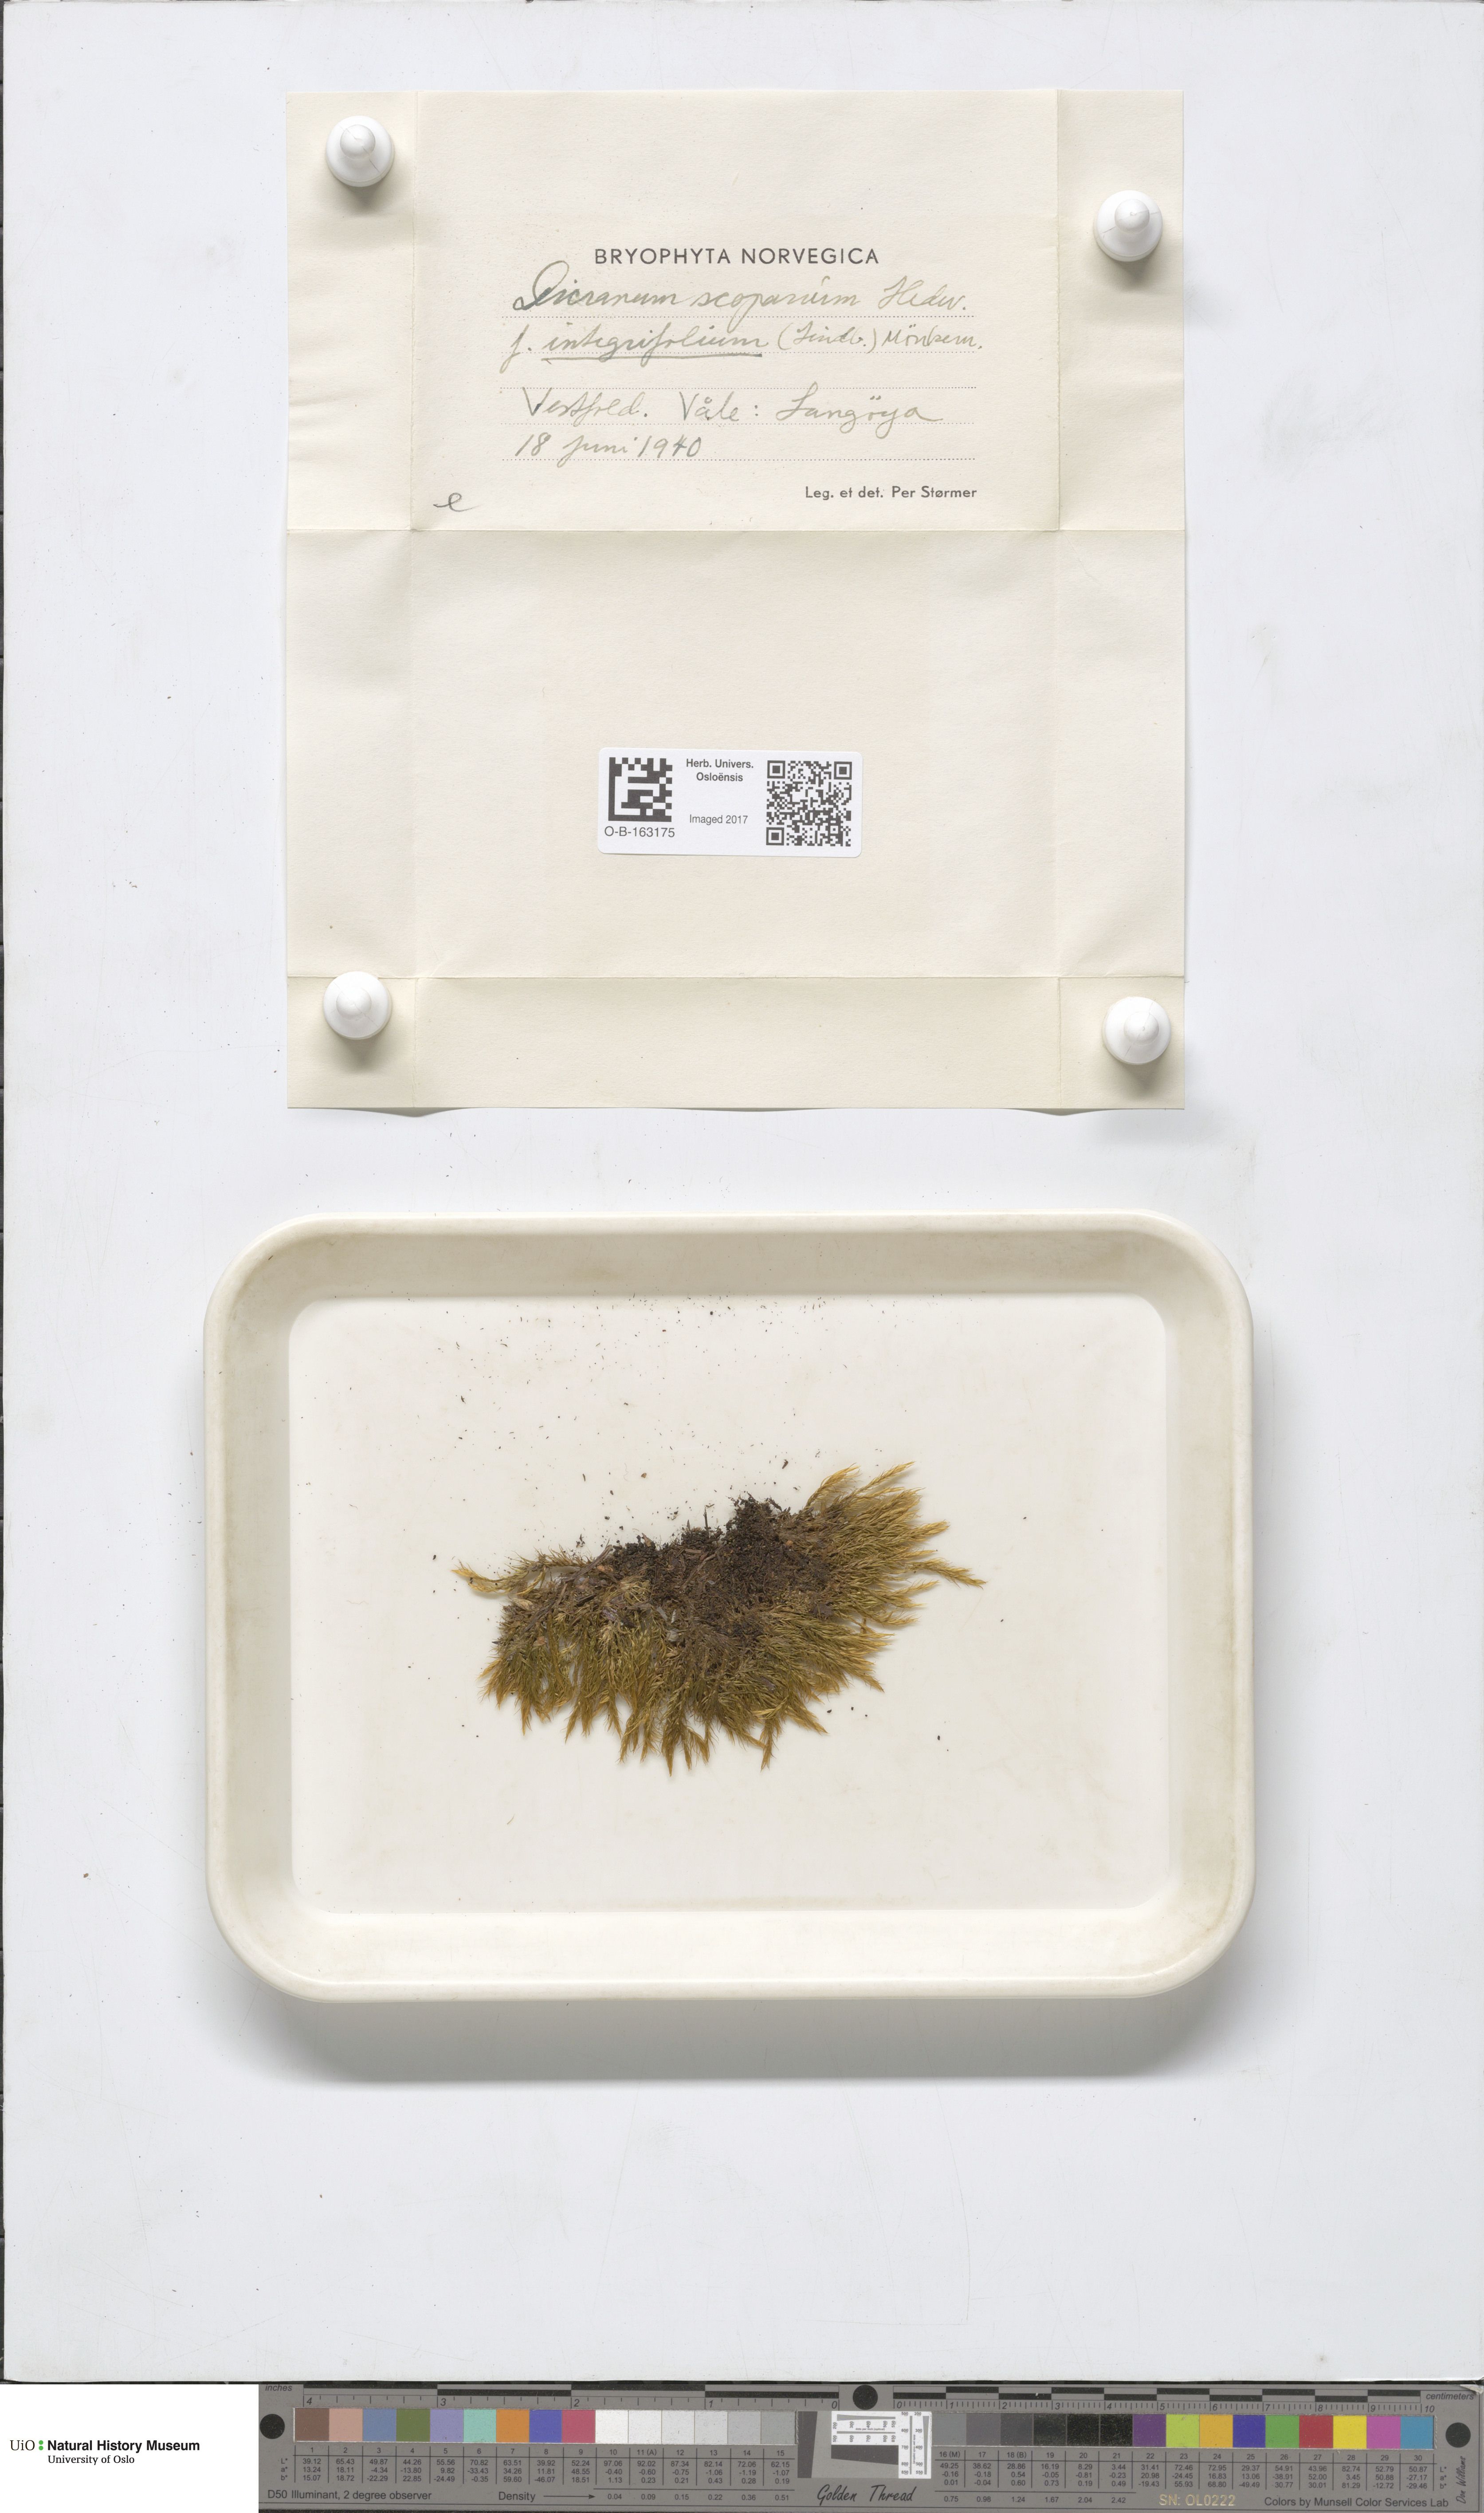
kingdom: Plantae
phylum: Bryophyta
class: Bryopsida
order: Dicranales
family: Dicranaceae
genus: Dicranum
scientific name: Dicranum spadiceum
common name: Confusing broom moss
